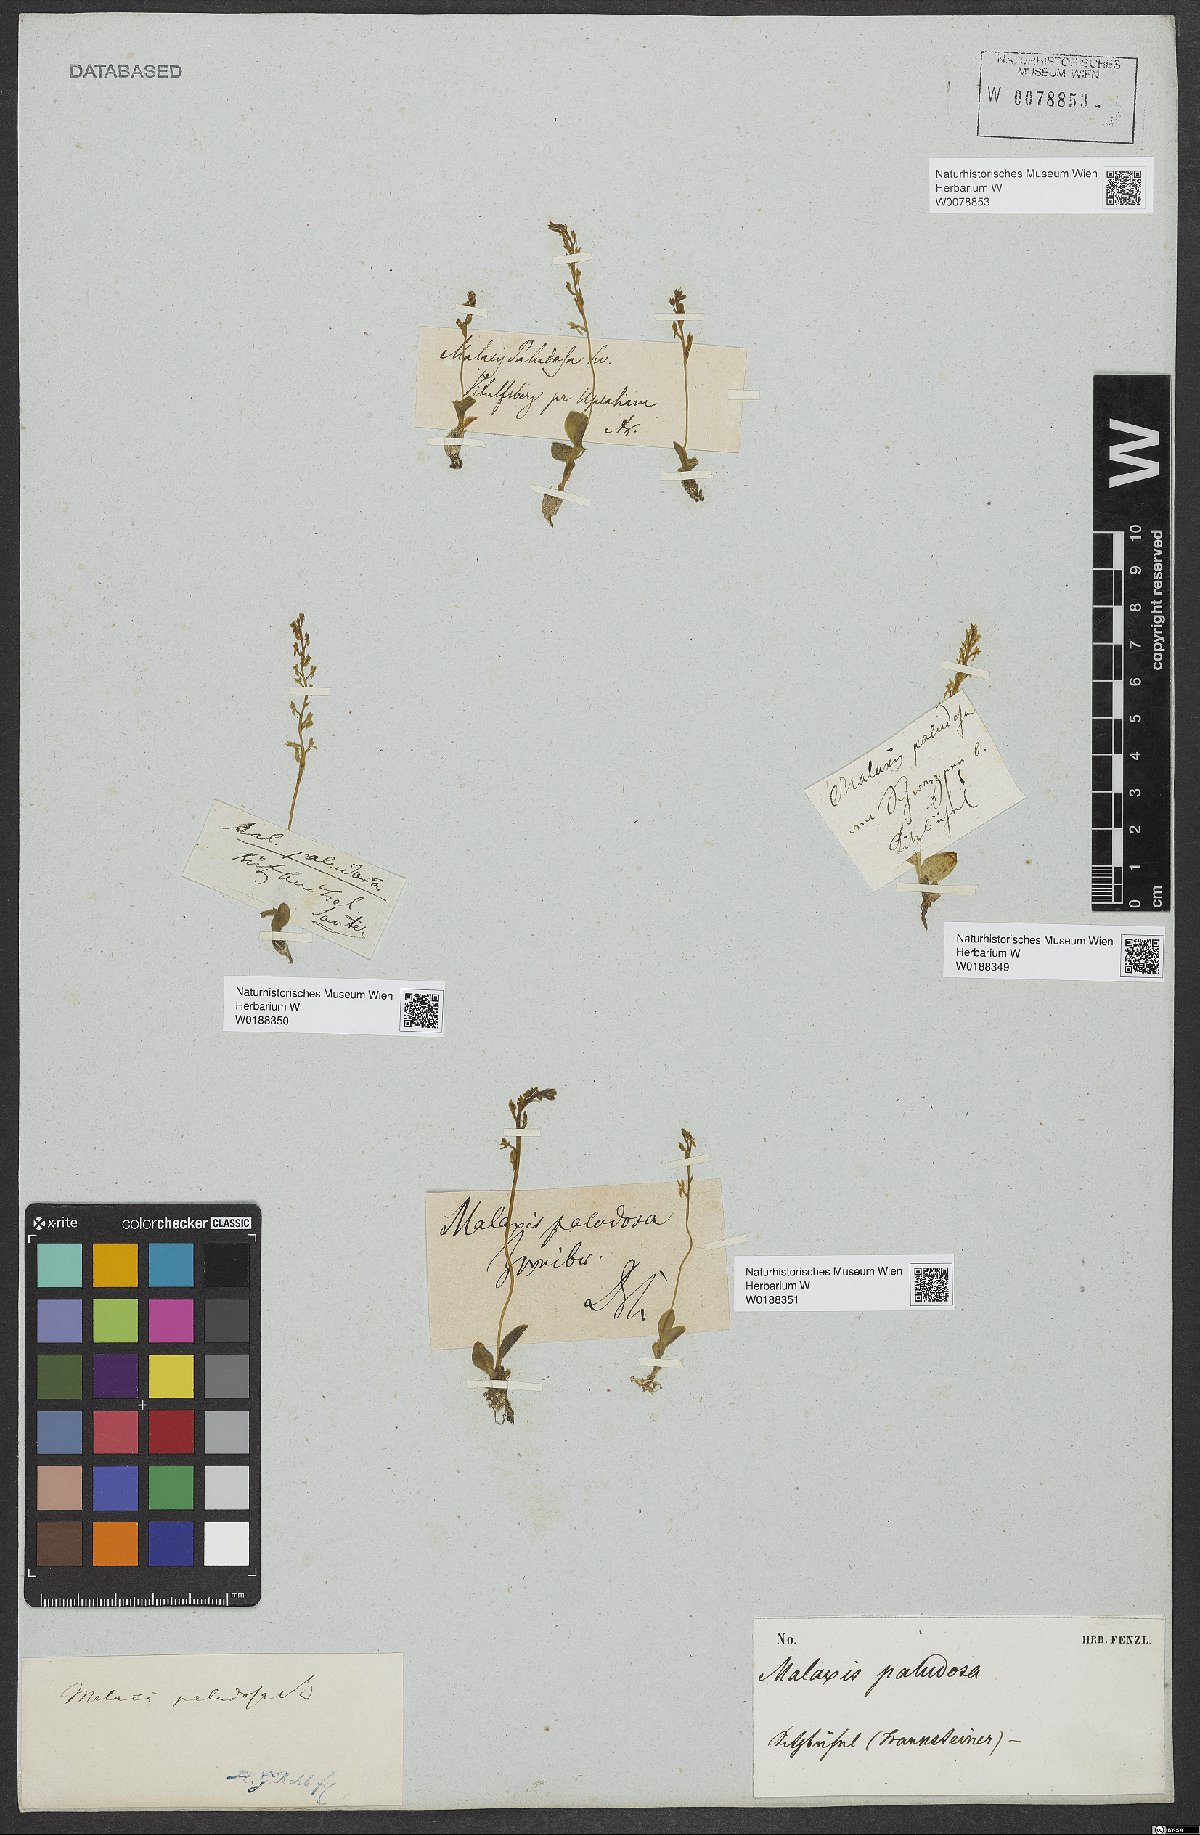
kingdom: Plantae
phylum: Tracheophyta
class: Liliopsida
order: Asparagales
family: Orchidaceae
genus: Hammarbya
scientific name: Hammarbya paludosa
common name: Bog orchid
